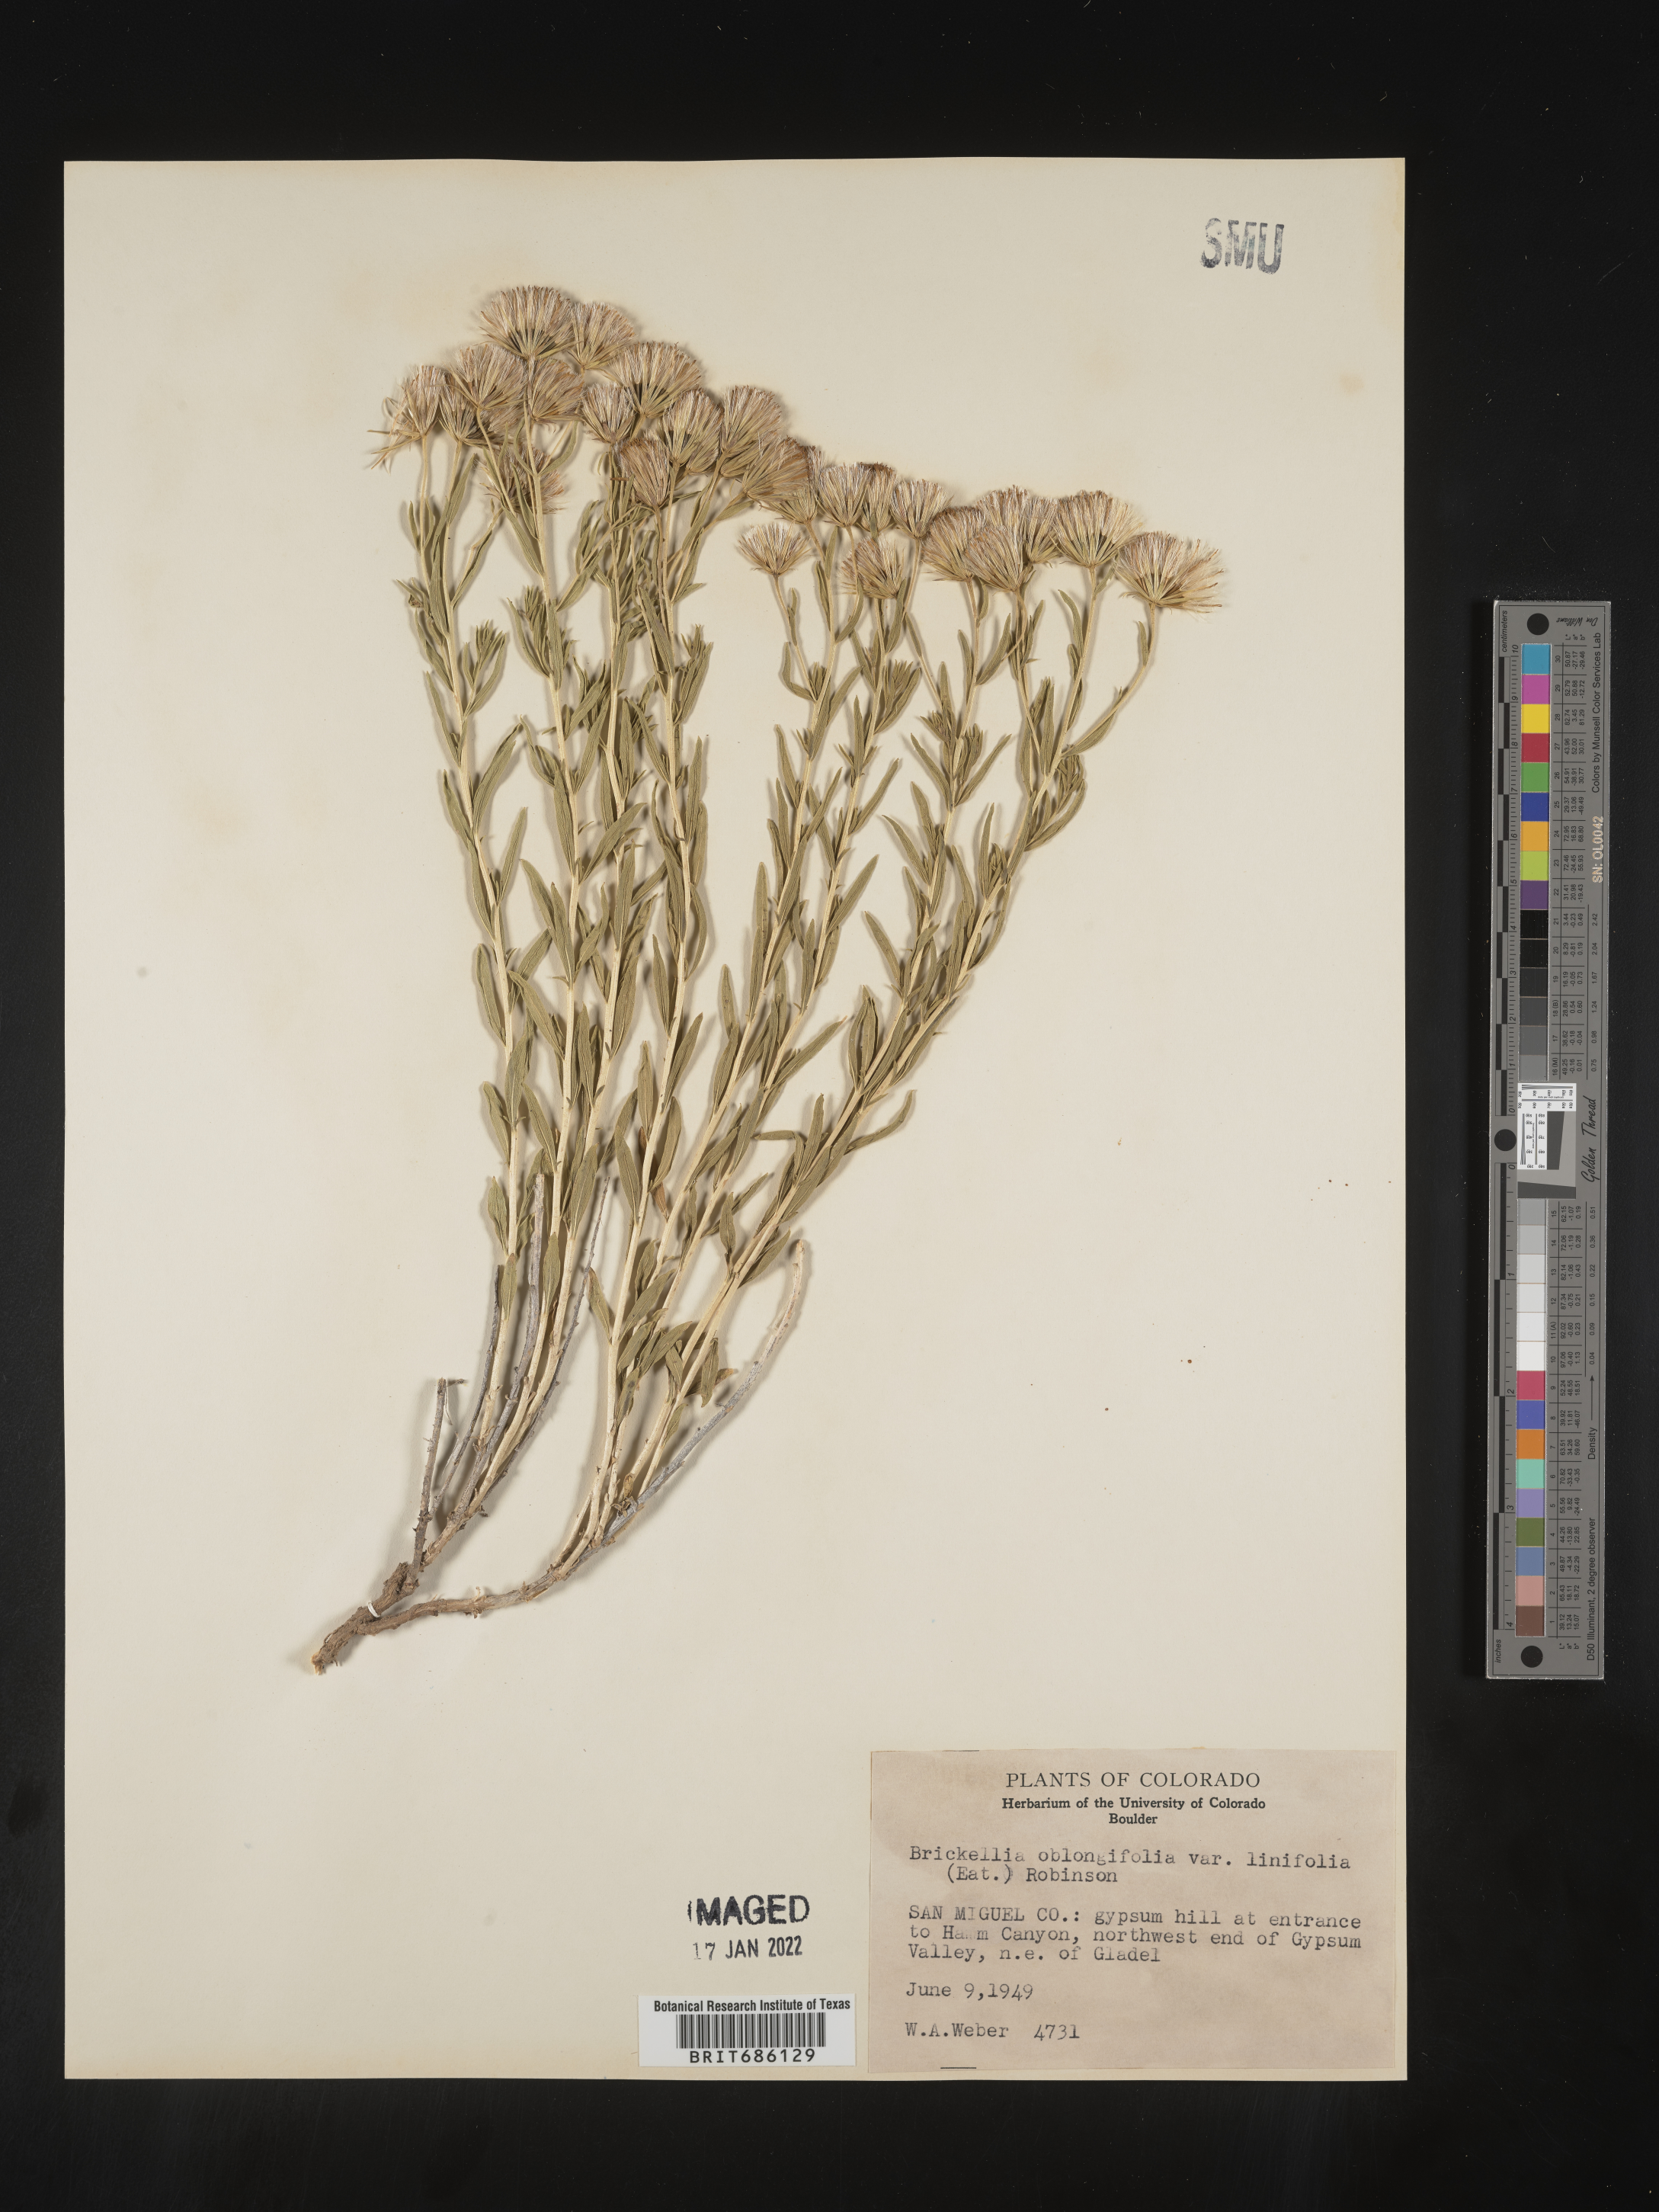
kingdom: Plantae
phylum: Tracheophyta
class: Magnoliopsida
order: Asterales
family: Asteraceae
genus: Brickellia
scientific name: Brickellia oblongifolia
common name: Mojave brickellbush
